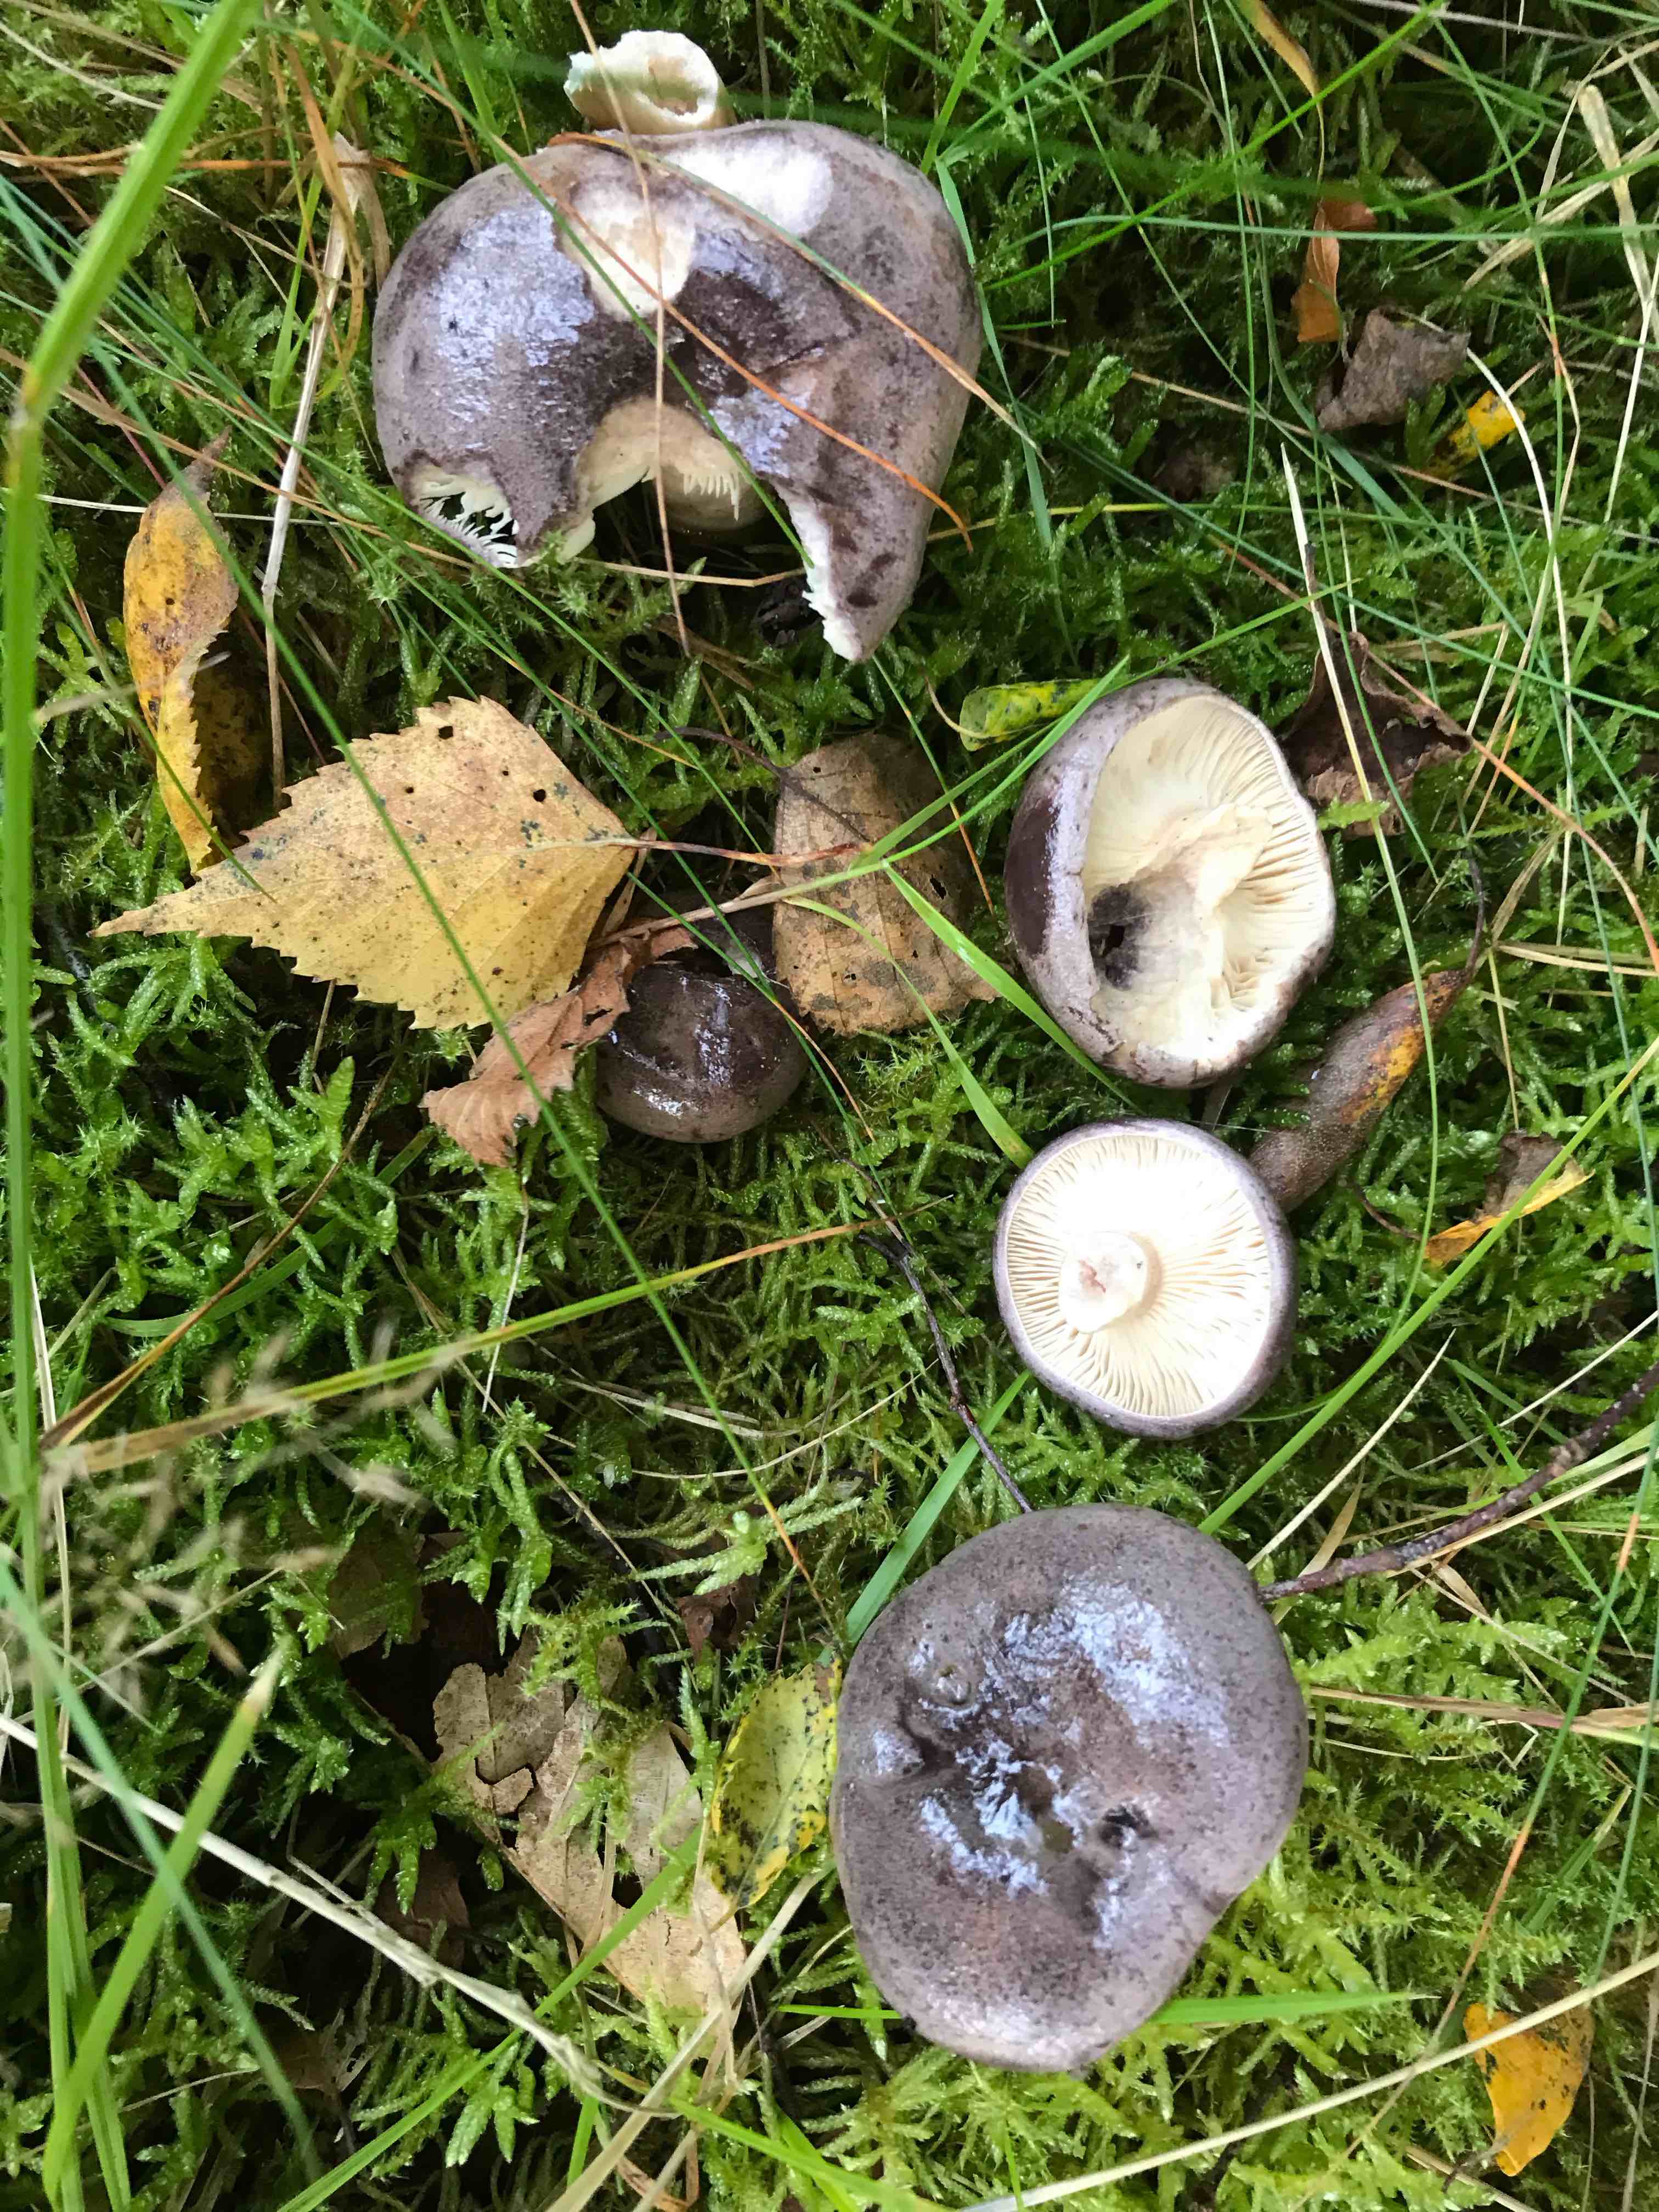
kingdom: Fungi
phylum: Basidiomycota
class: Agaricomycetes
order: Russulales
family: Russulaceae
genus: Lactarius
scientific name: Lactarius
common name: mælkehat
